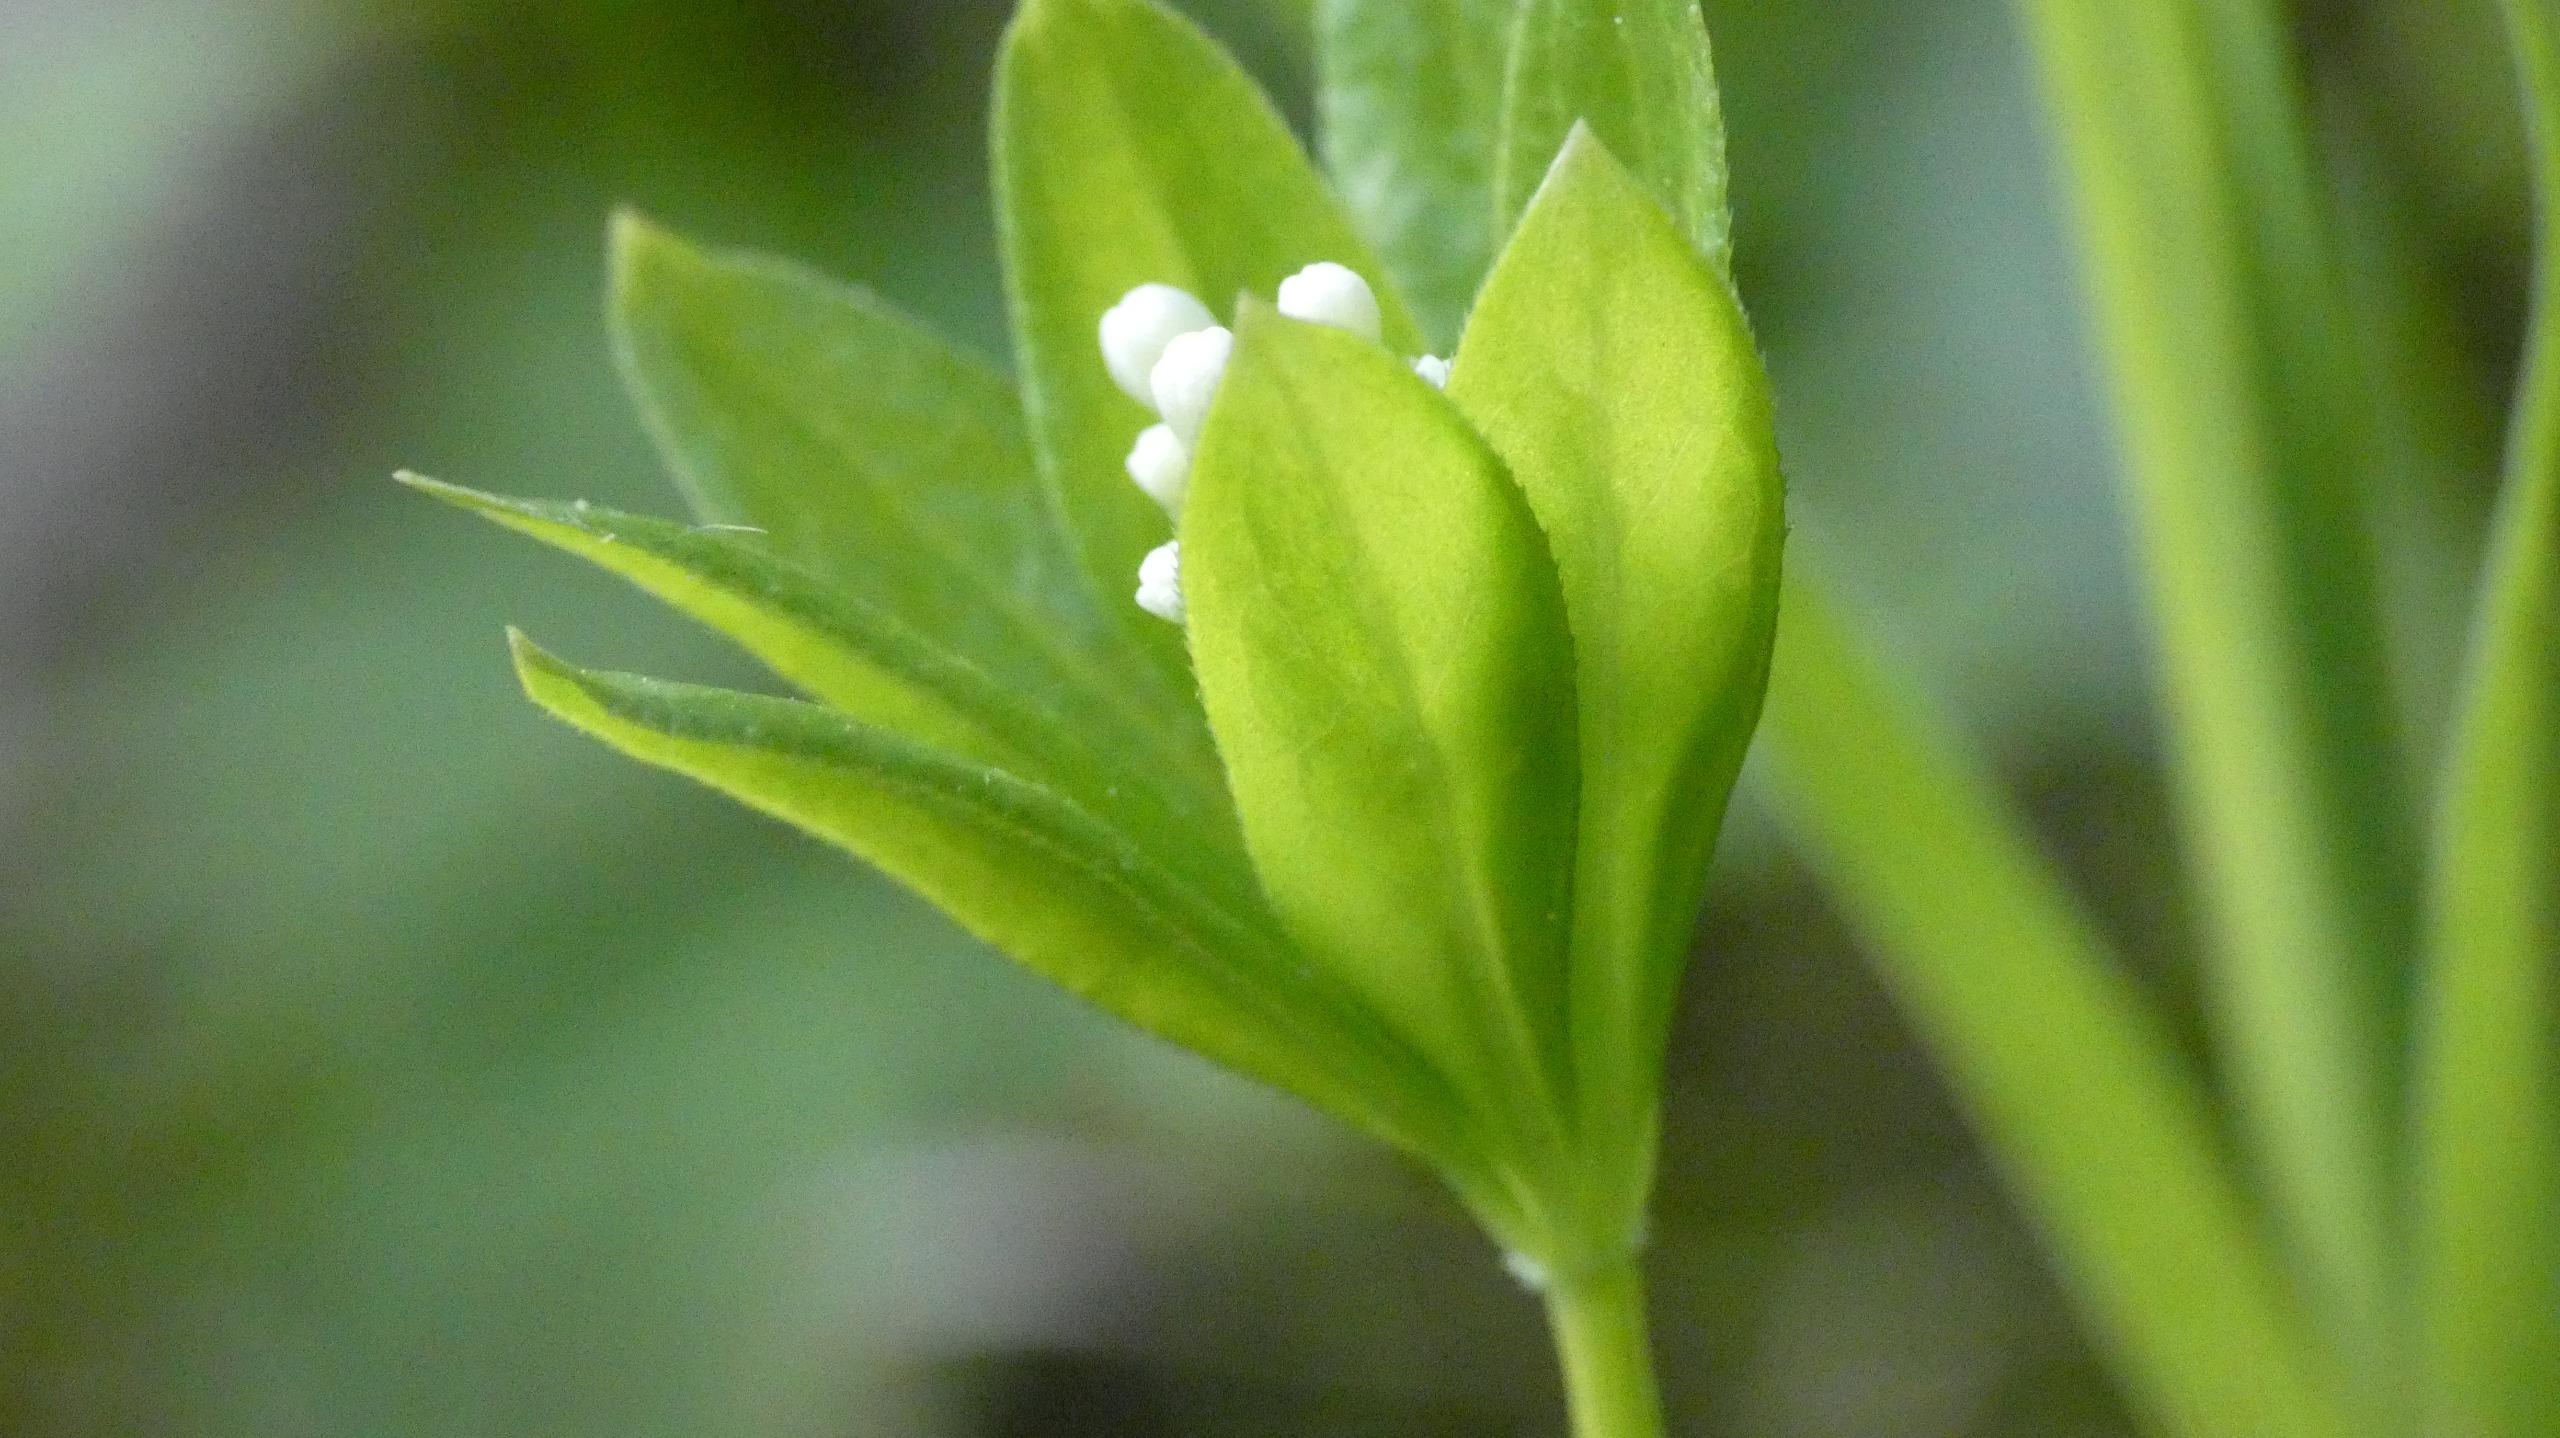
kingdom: Plantae
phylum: Tracheophyta
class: Magnoliopsida
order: Gentianales
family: Rubiaceae
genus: Galium
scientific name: Galium odoratum
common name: Skovmærke
